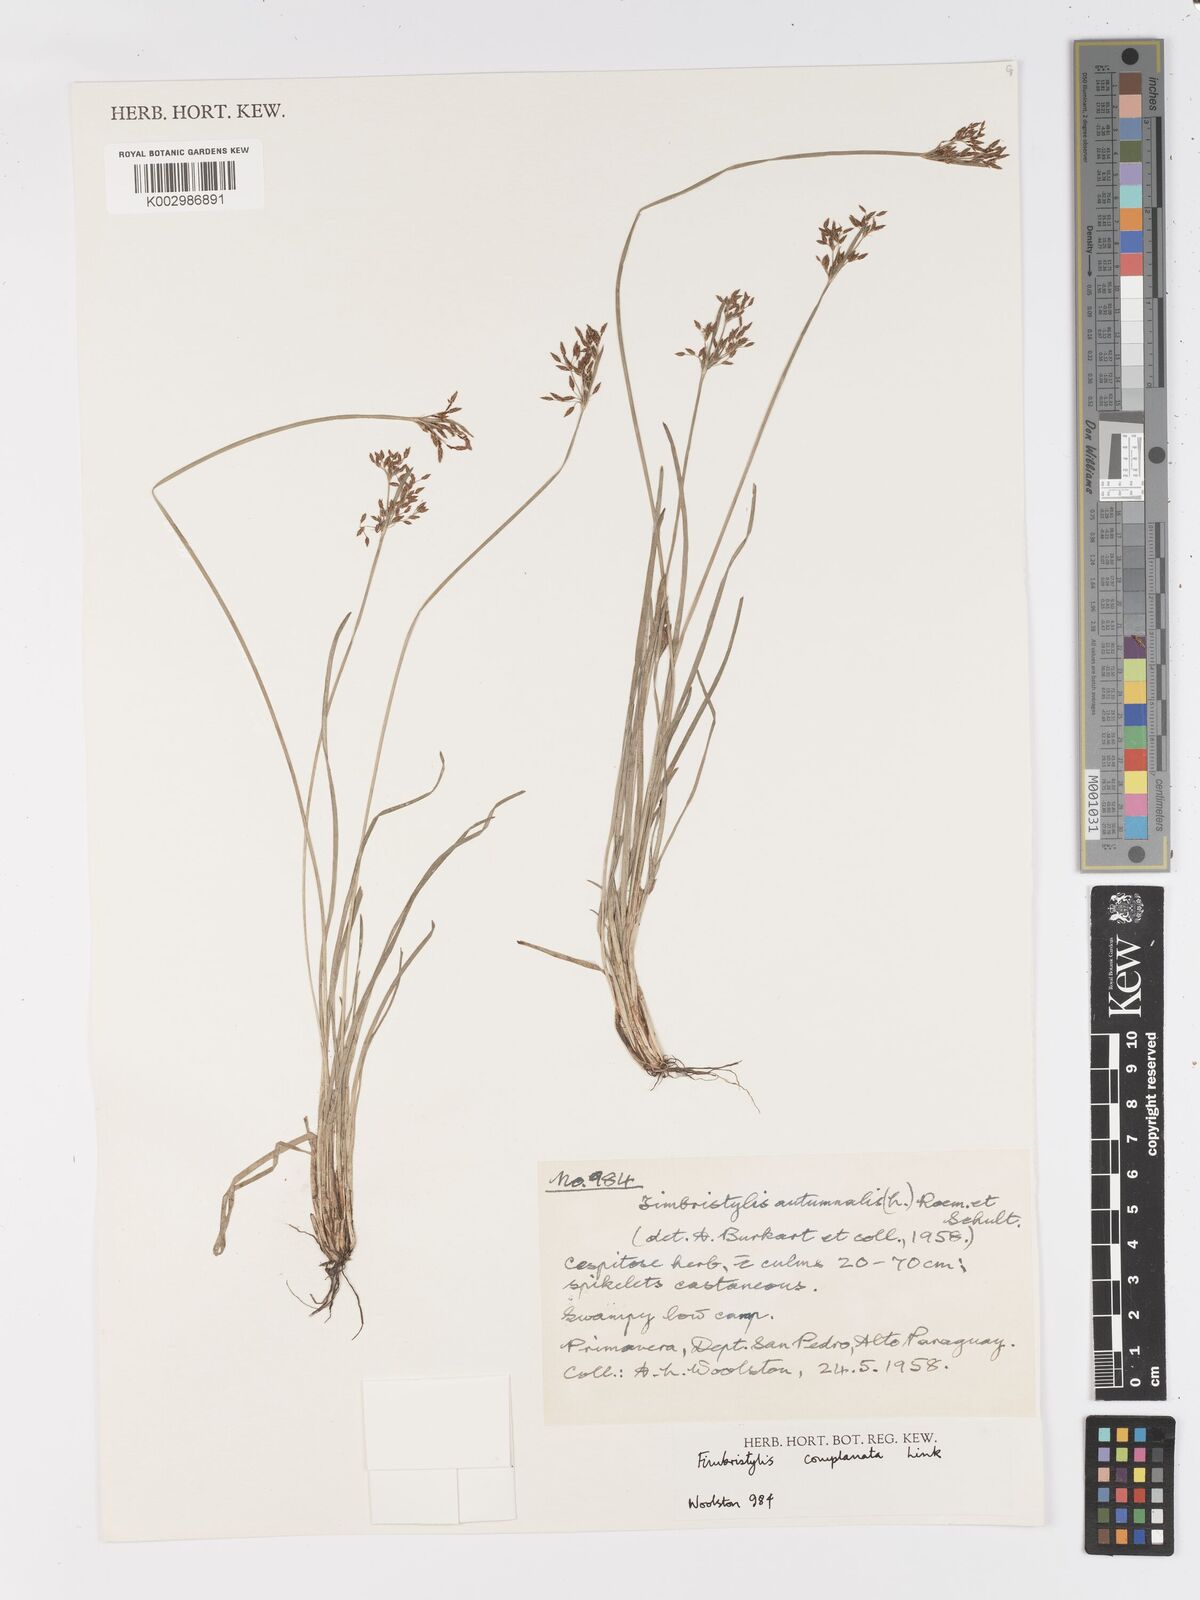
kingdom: Plantae
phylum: Tracheophyta
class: Liliopsida
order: Poales
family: Cyperaceae
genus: Fimbristylis
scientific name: Fimbristylis complanata
